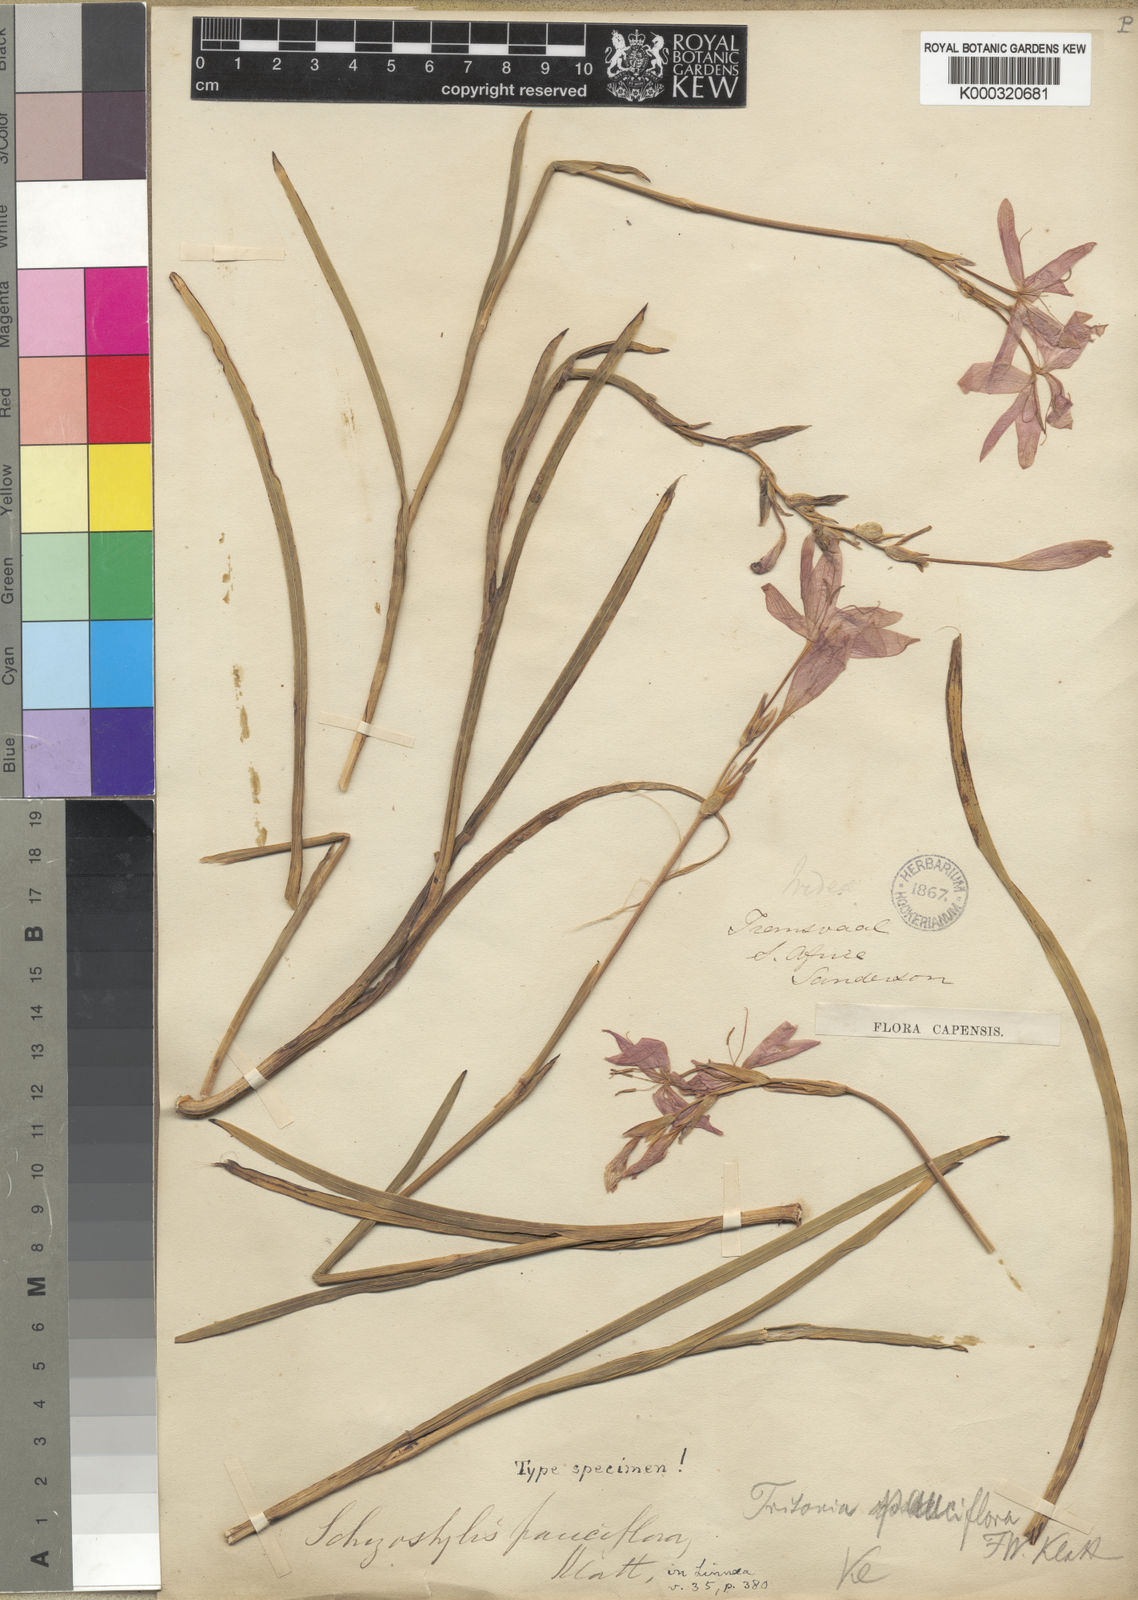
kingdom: Plantae
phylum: Tracheophyta
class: Liliopsida
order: Asparagales
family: Iridaceae
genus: Hesperantha
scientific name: Hesperantha coccinea
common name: River-lily
